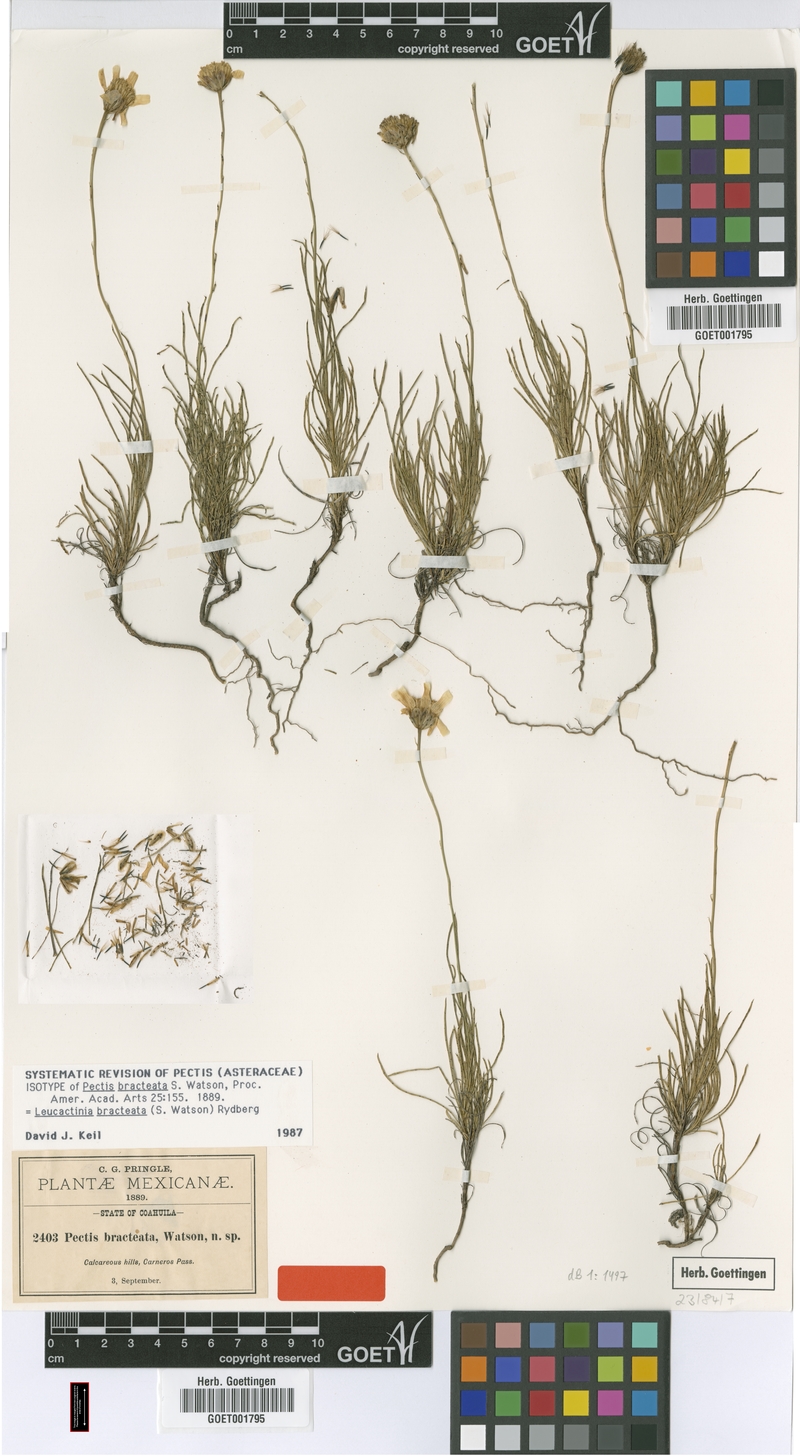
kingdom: Plantae
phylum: Tracheophyta
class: Magnoliopsida
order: Asterales
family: Asteraceae
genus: Leucactinia
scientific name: Leucactinia bracteata
